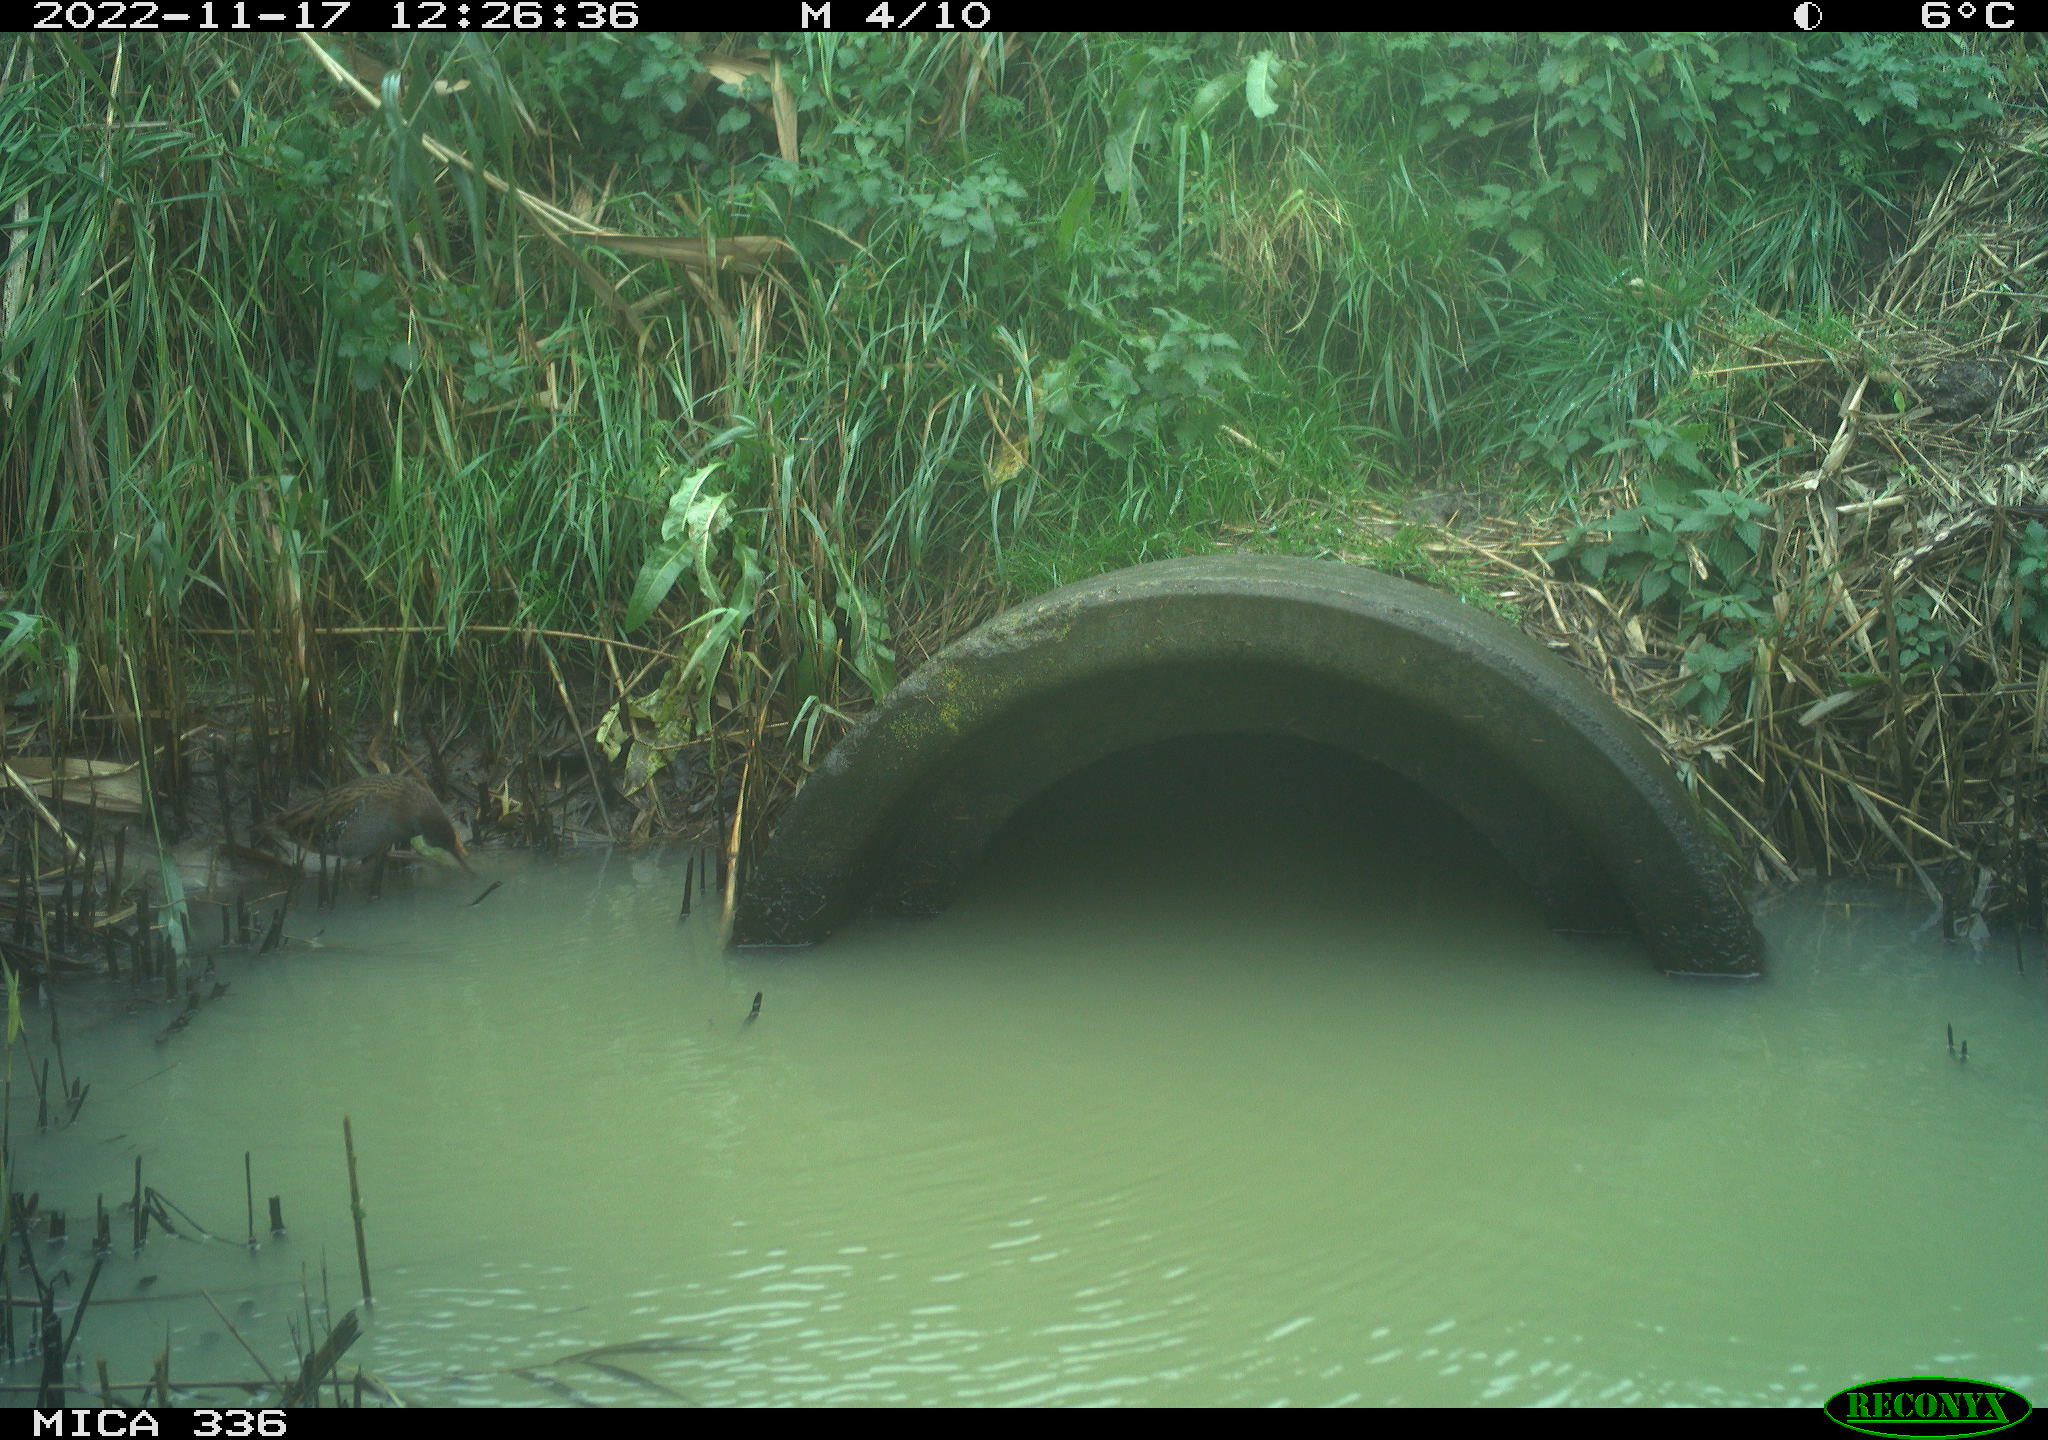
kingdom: Animalia
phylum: Chordata
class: Aves
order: Gruiformes
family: Rallidae
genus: Rallus
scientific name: Rallus aquaticus
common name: Water rail
